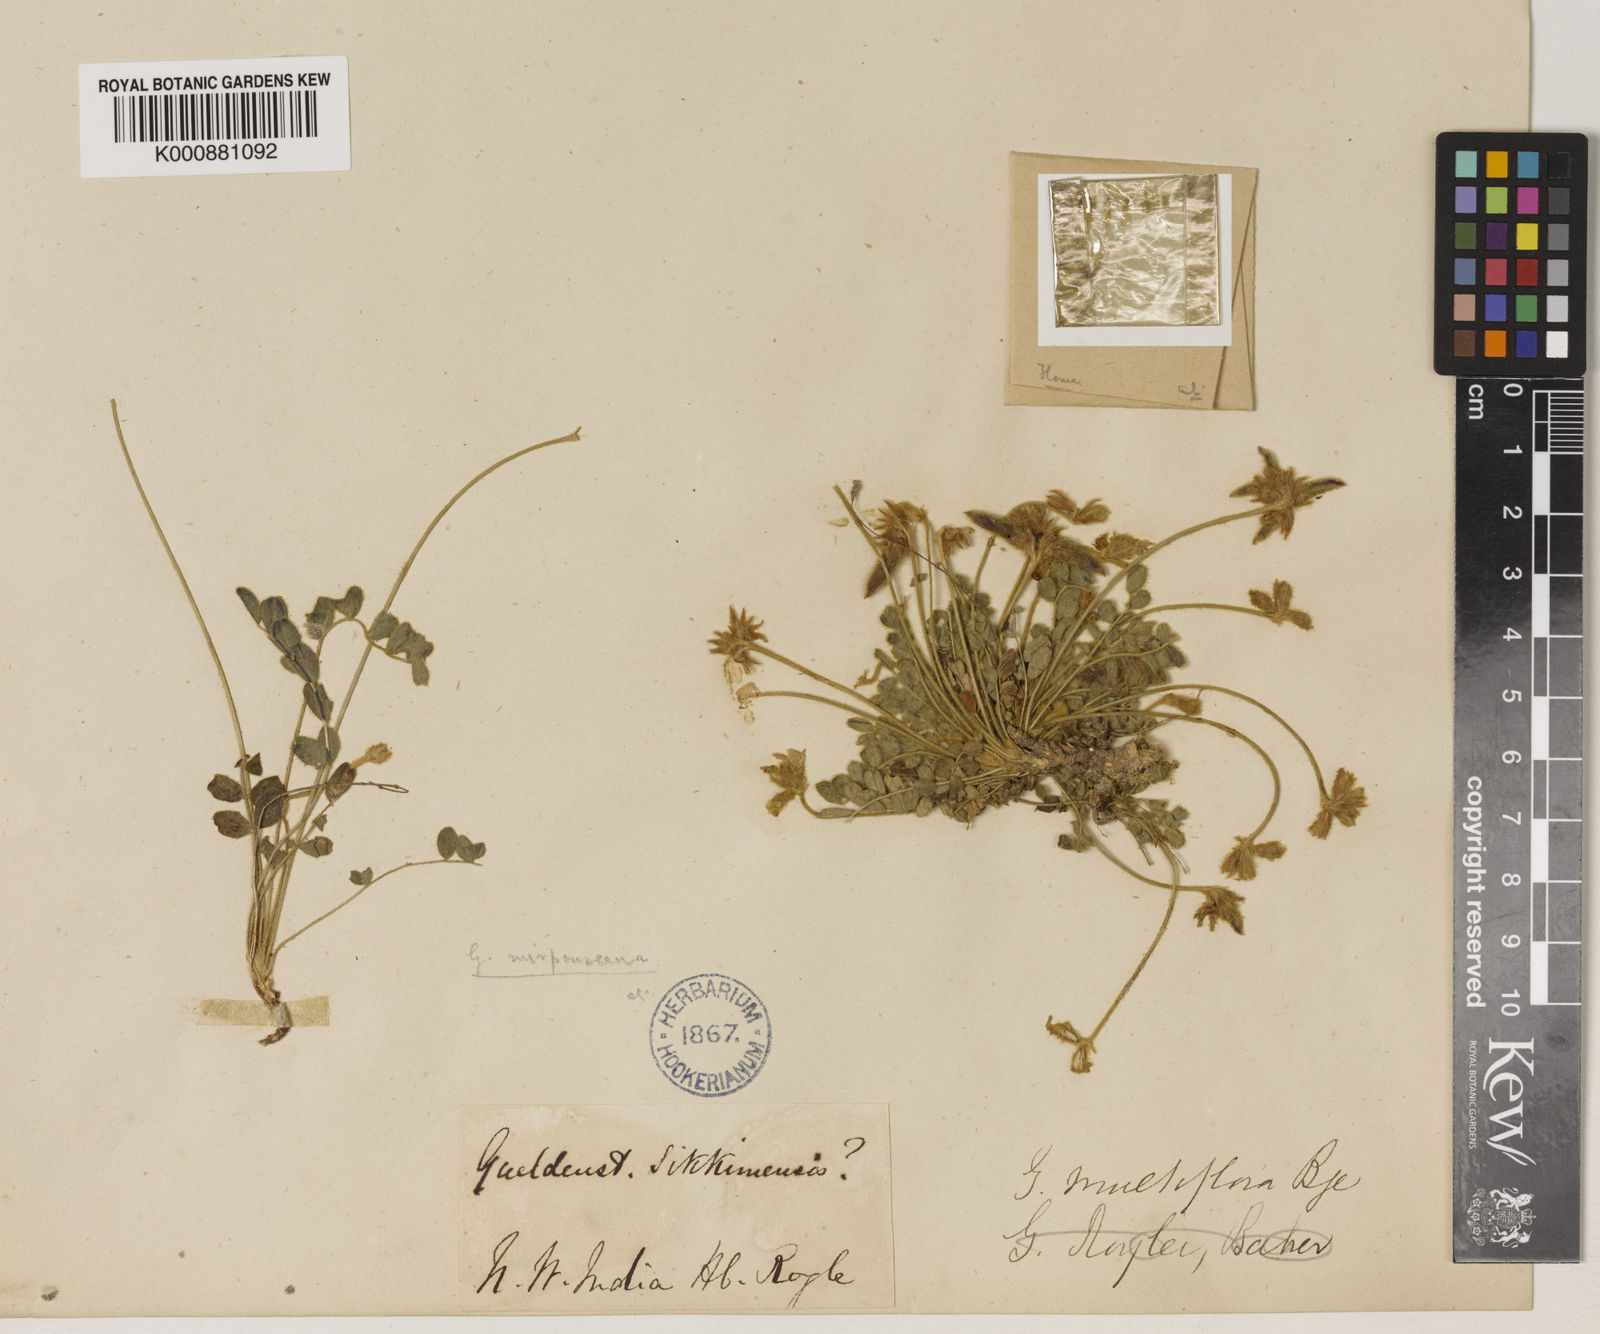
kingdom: Plantae
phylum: Tracheophyta
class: Magnoliopsida
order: Fabales
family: Fabaceae
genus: Gueldenstaedtia
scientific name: Gueldenstaedtia
